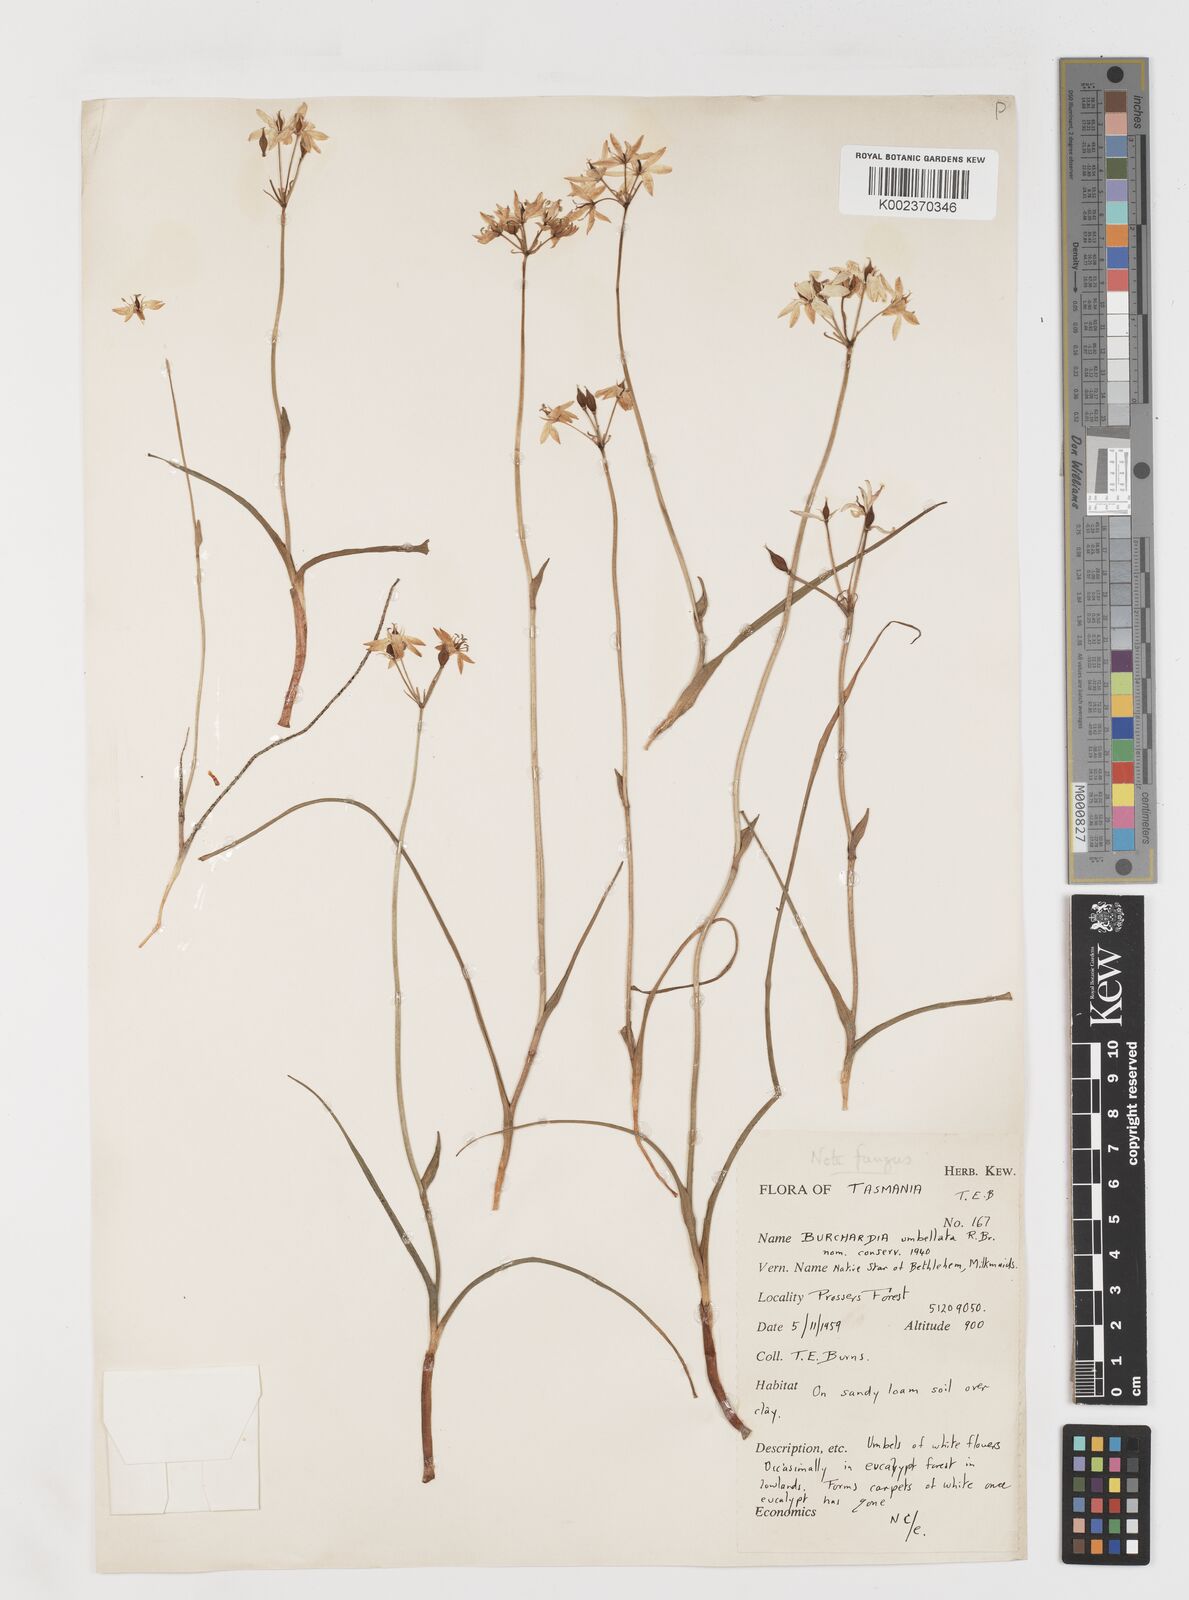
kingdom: Plantae
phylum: Tracheophyta
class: Liliopsida
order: Liliales
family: Colchicaceae
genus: Burchardia
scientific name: Burchardia umbellata
